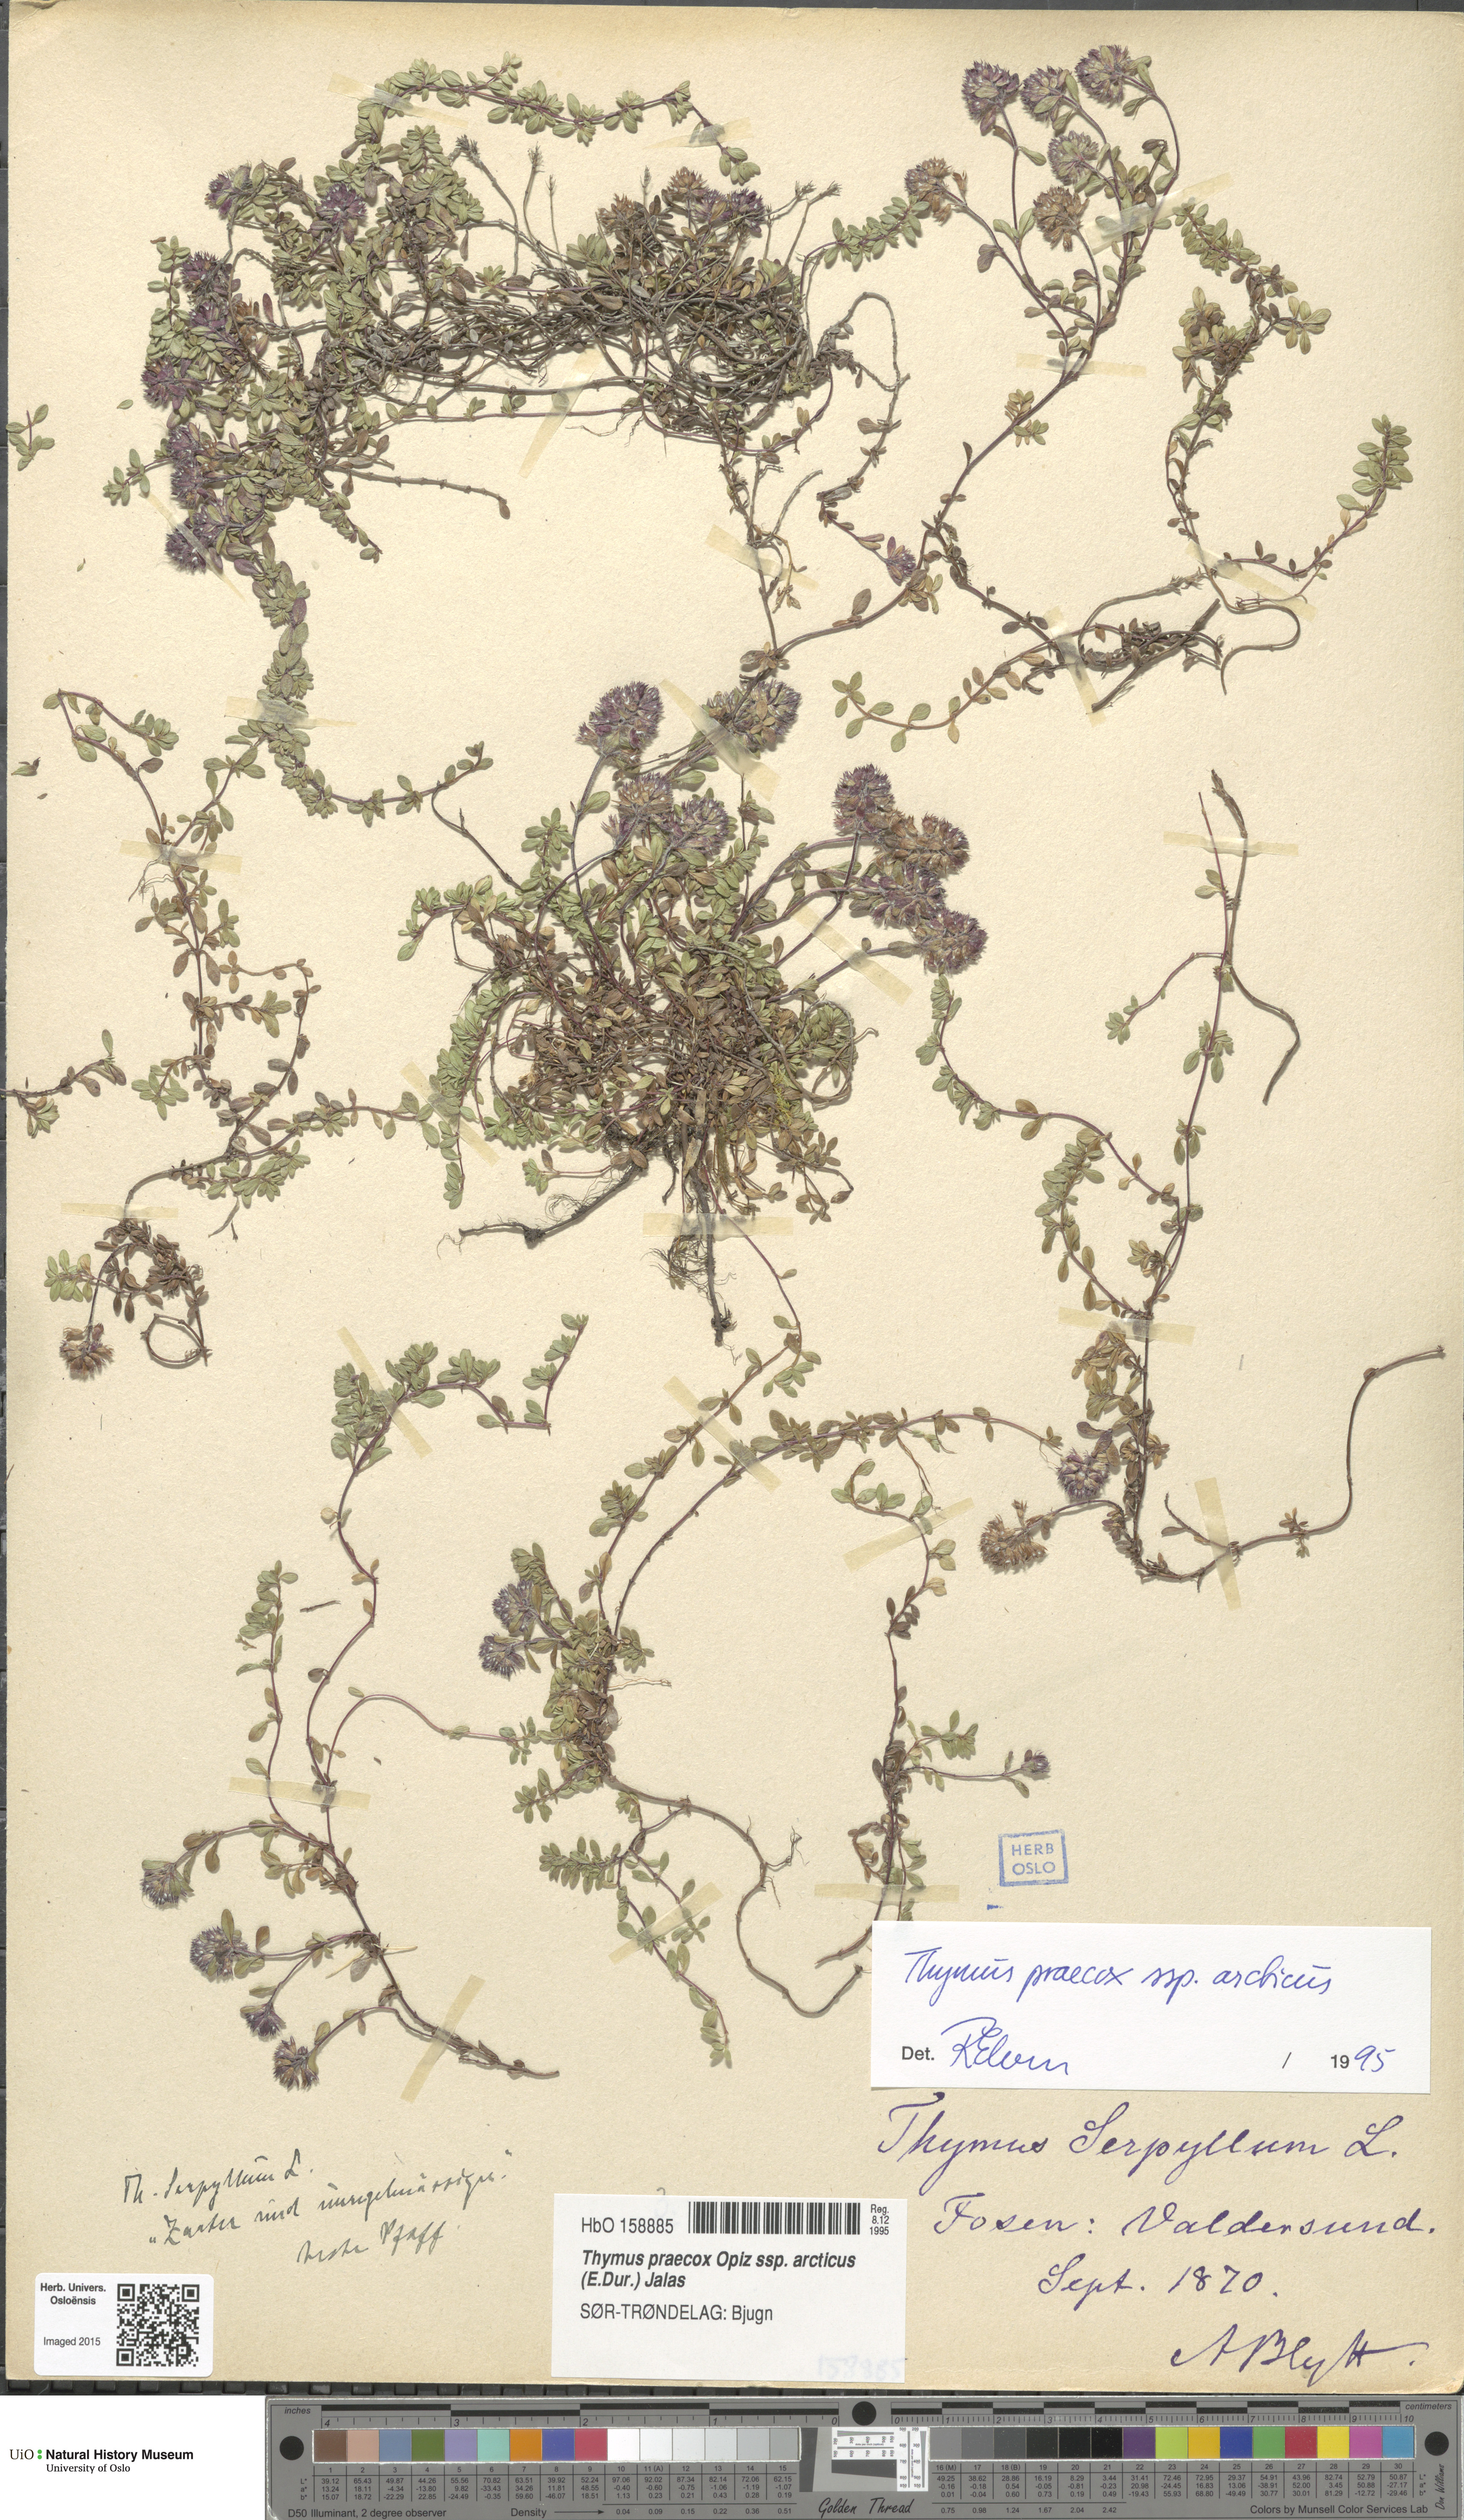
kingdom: Plantae
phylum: Tracheophyta
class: Magnoliopsida
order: Lamiales
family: Lamiaceae
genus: Thymus
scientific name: Thymus praecox
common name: Wild thyme
